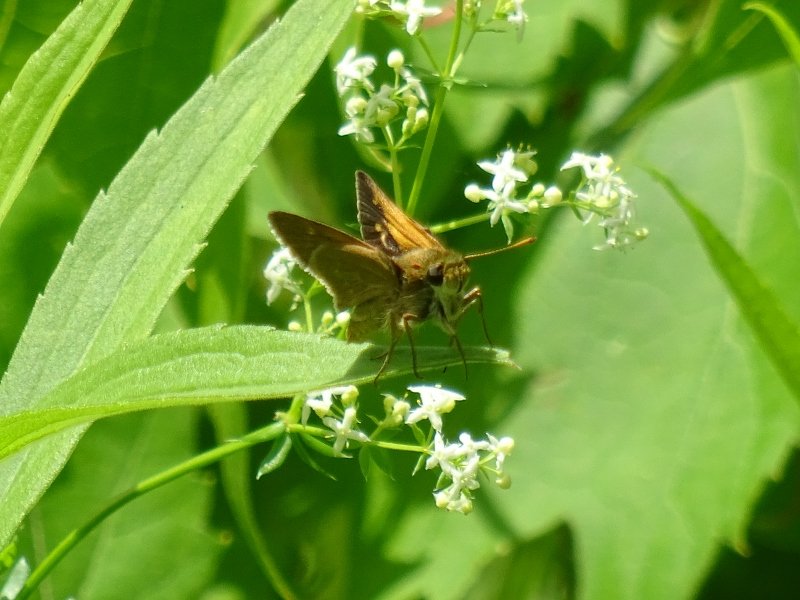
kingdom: Animalia
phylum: Arthropoda
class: Insecta
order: Lepidoptera
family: Hesperiidae
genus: Polites
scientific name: Polites themistocles
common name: Tawny-edged Skipper
